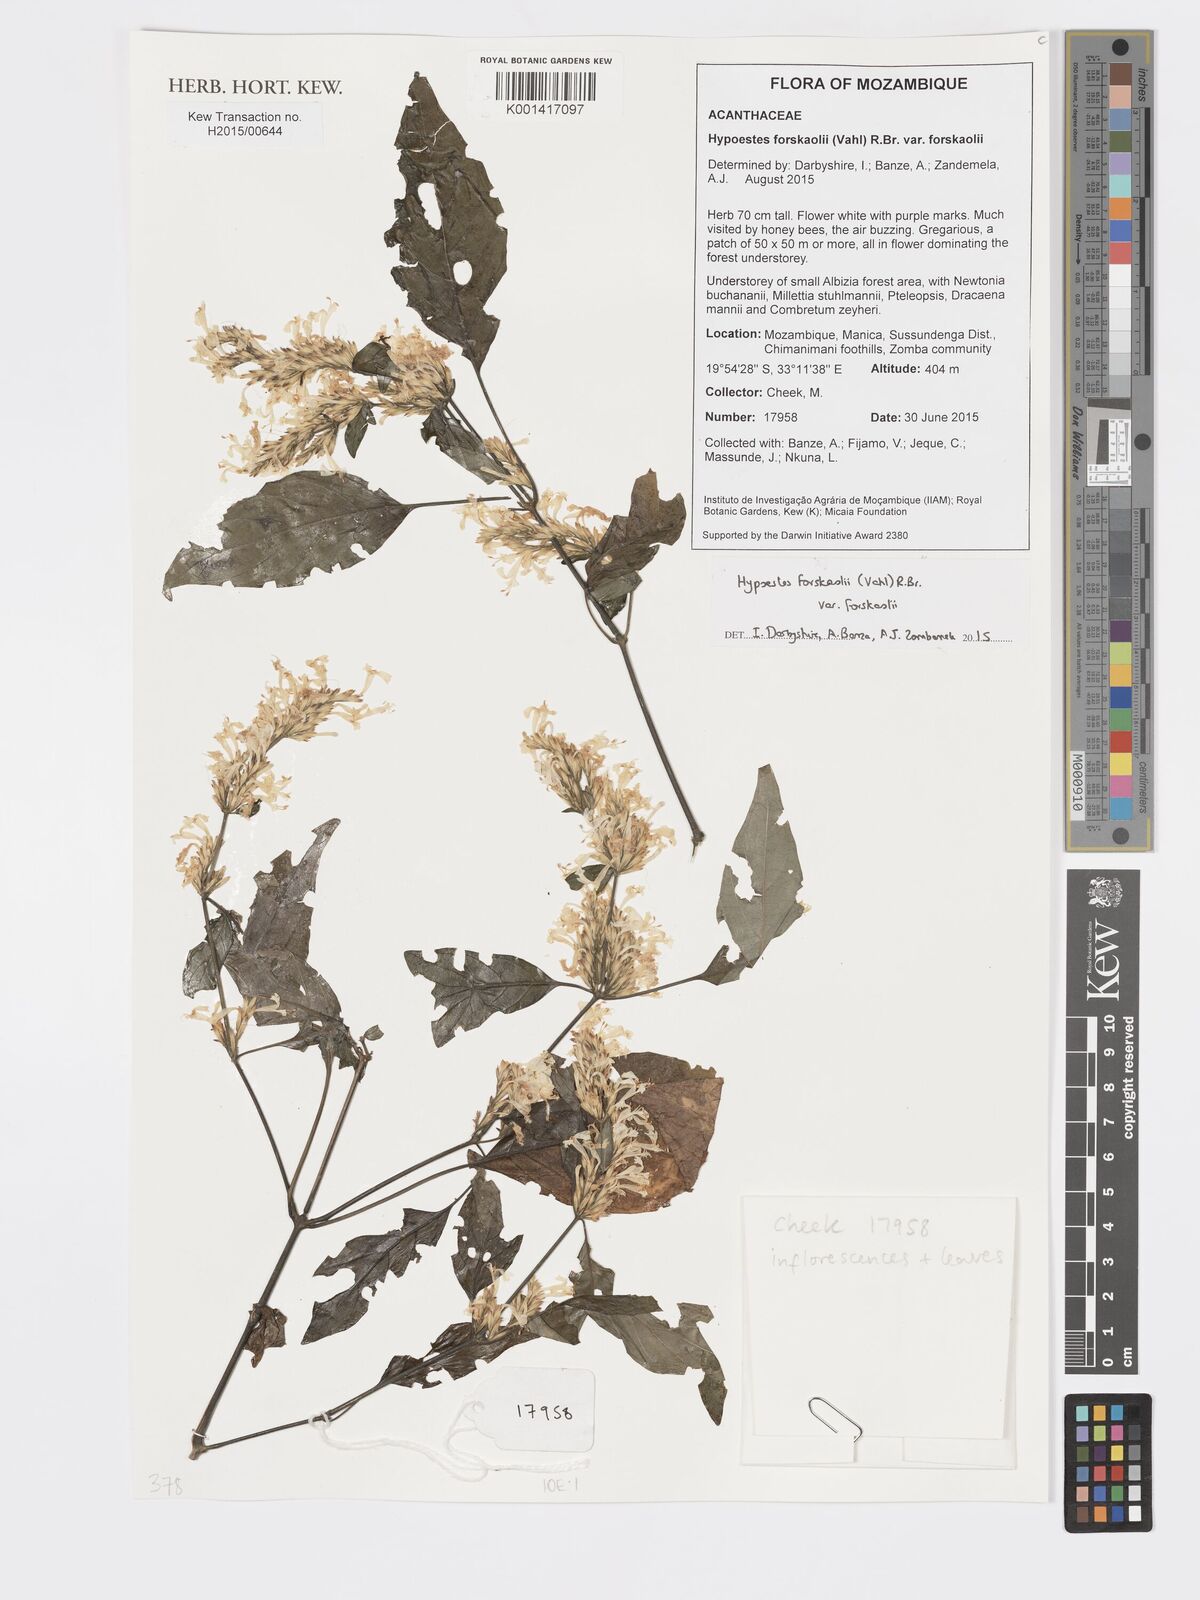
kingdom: Plantae
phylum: Tracheophyta
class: Magnoliopsida
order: Lamiales
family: Acanthaceae
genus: Hypoestes
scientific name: Hypoestes forskaolii
